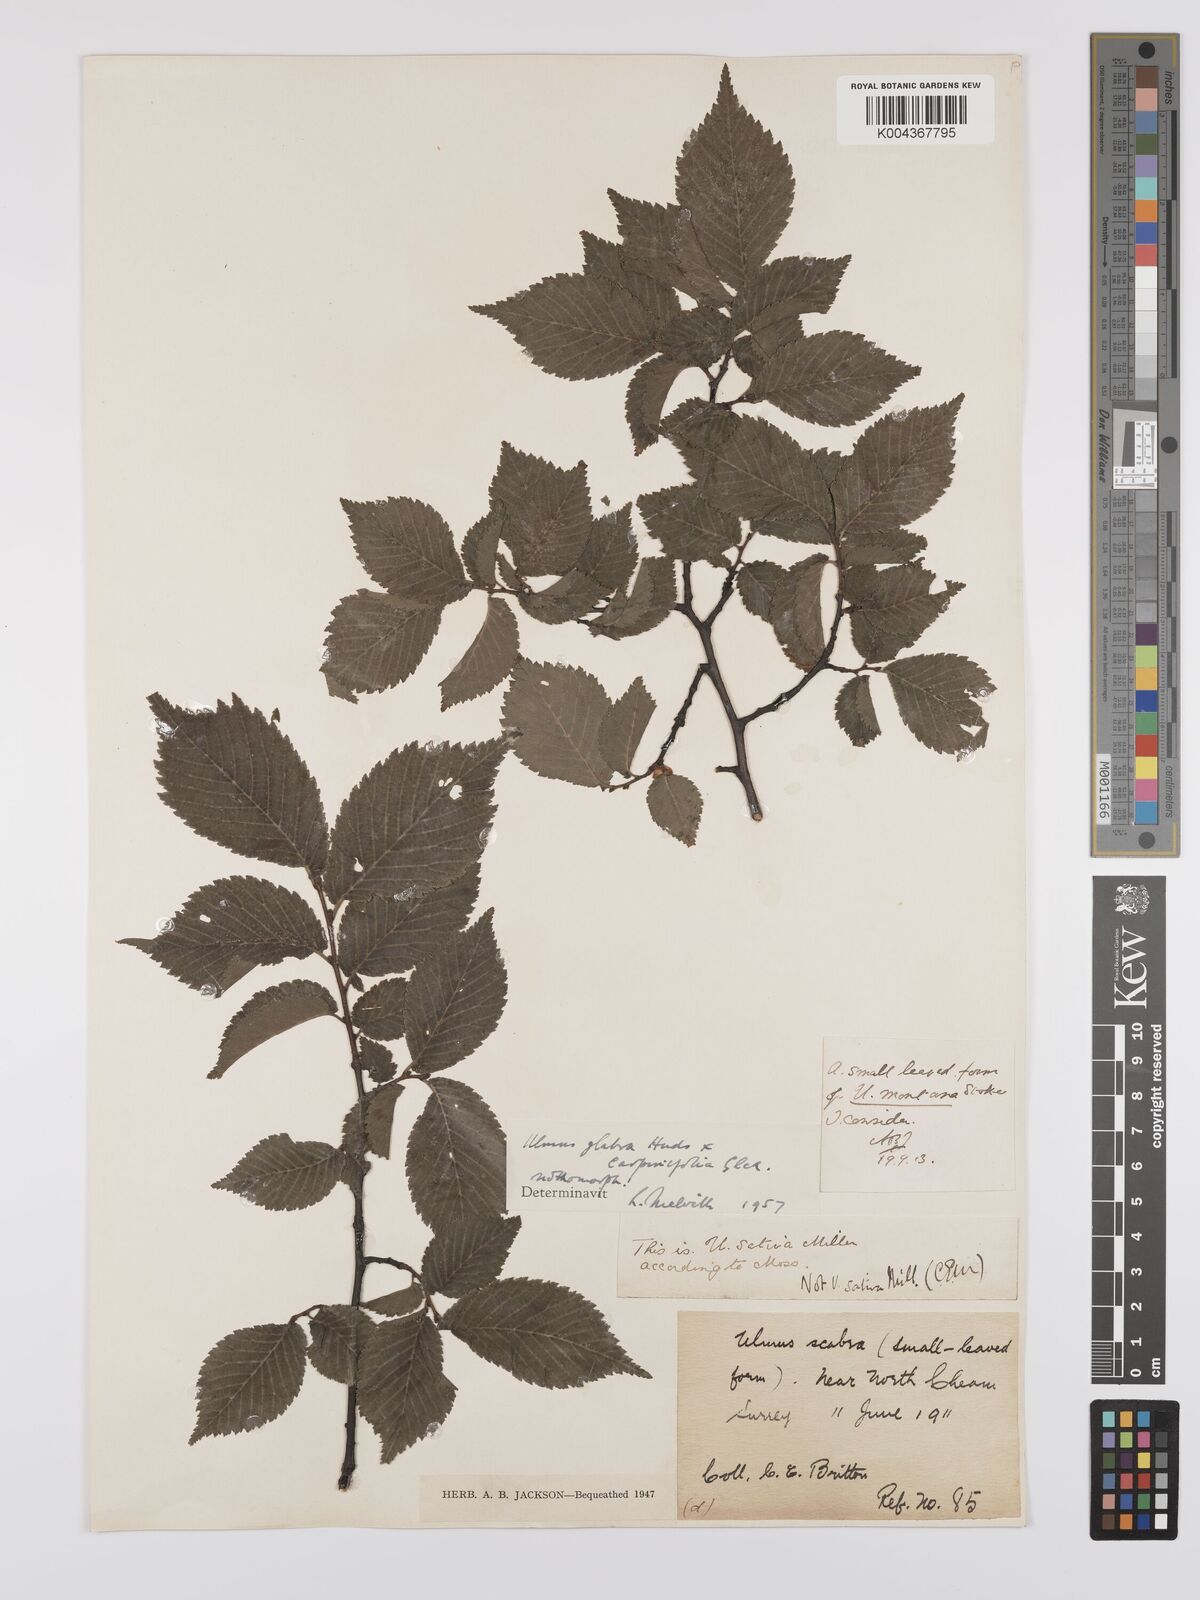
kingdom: Plantae
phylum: Tracheophyta
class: Magnoliopsida
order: Rosales
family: Ulmaceae
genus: Ulmus
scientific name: Ulmus
